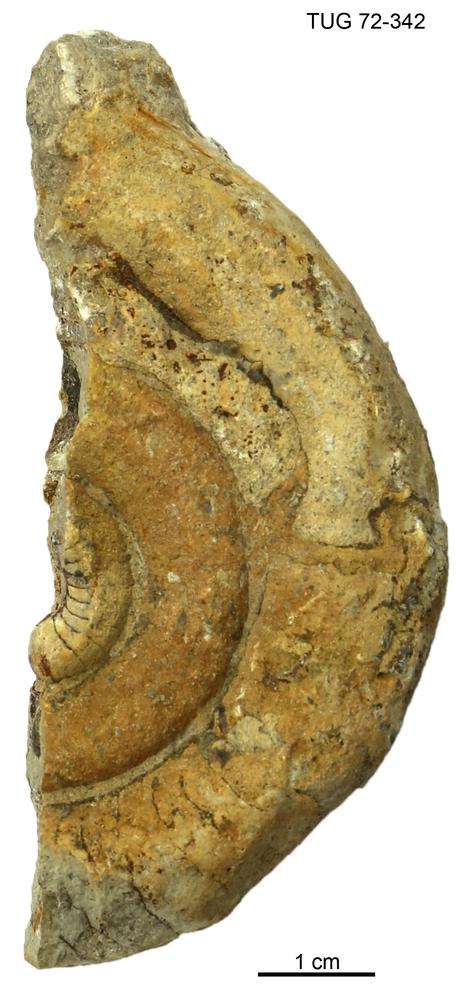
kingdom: Animalia
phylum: Mollusca
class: Cephalopoda
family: Trocholitidae
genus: Schroederoceras
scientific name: Schroederoceras
